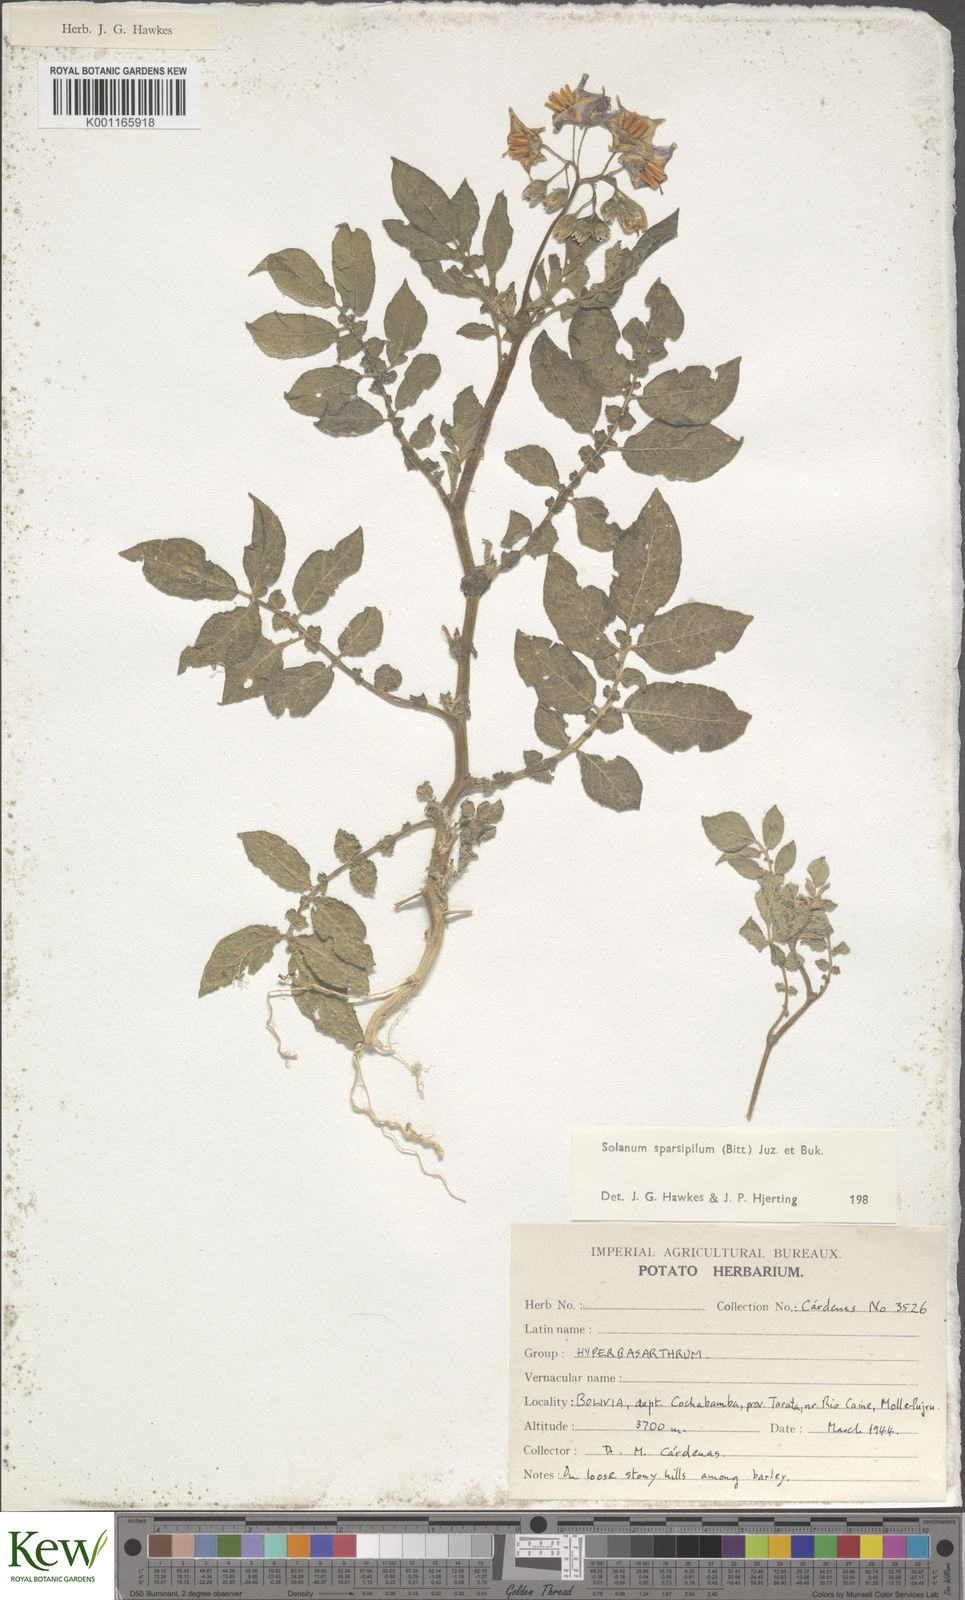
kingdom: Plantae
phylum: Tracheophyta
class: Magnoliopsida
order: Solanales
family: Solanaceae
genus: Solanum
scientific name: Solanum brevicaule
